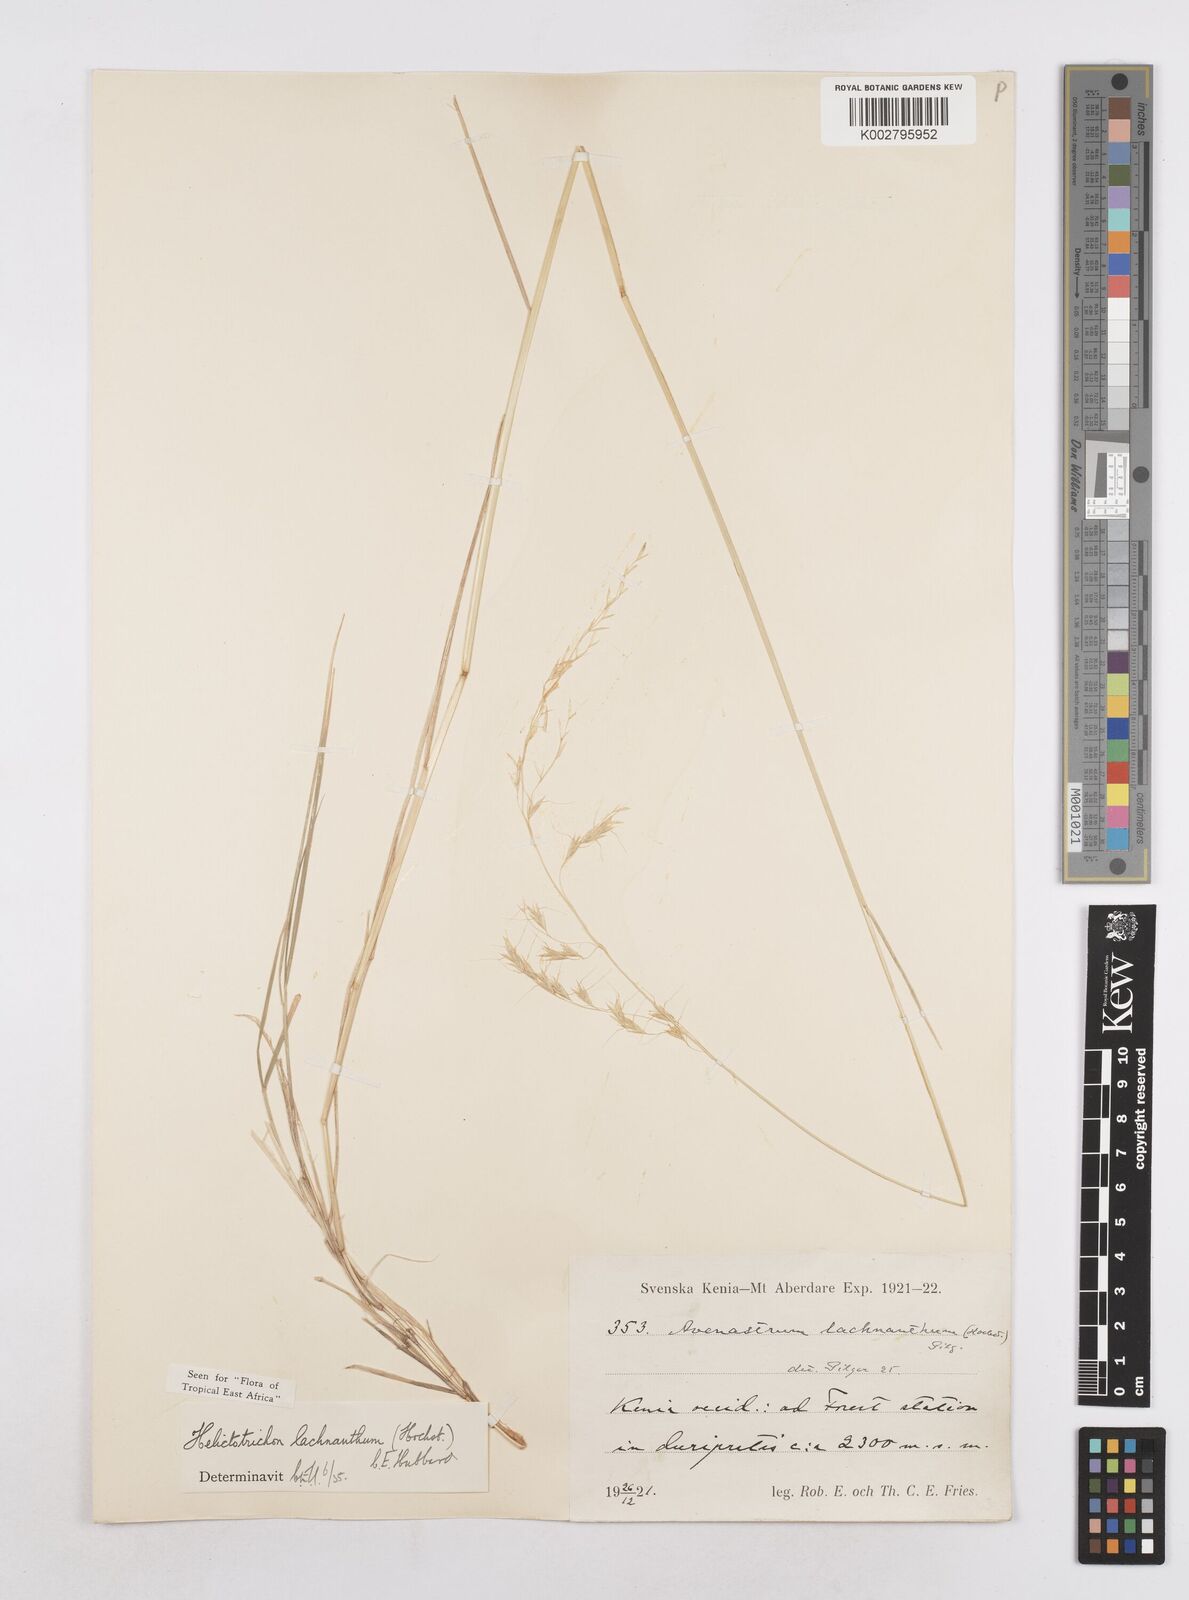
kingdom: Plantae
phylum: Tracheophyta
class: Liliopsida
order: Poales
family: Poaceae
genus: Trisetopsis
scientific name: Trisetopsis lachnantha
